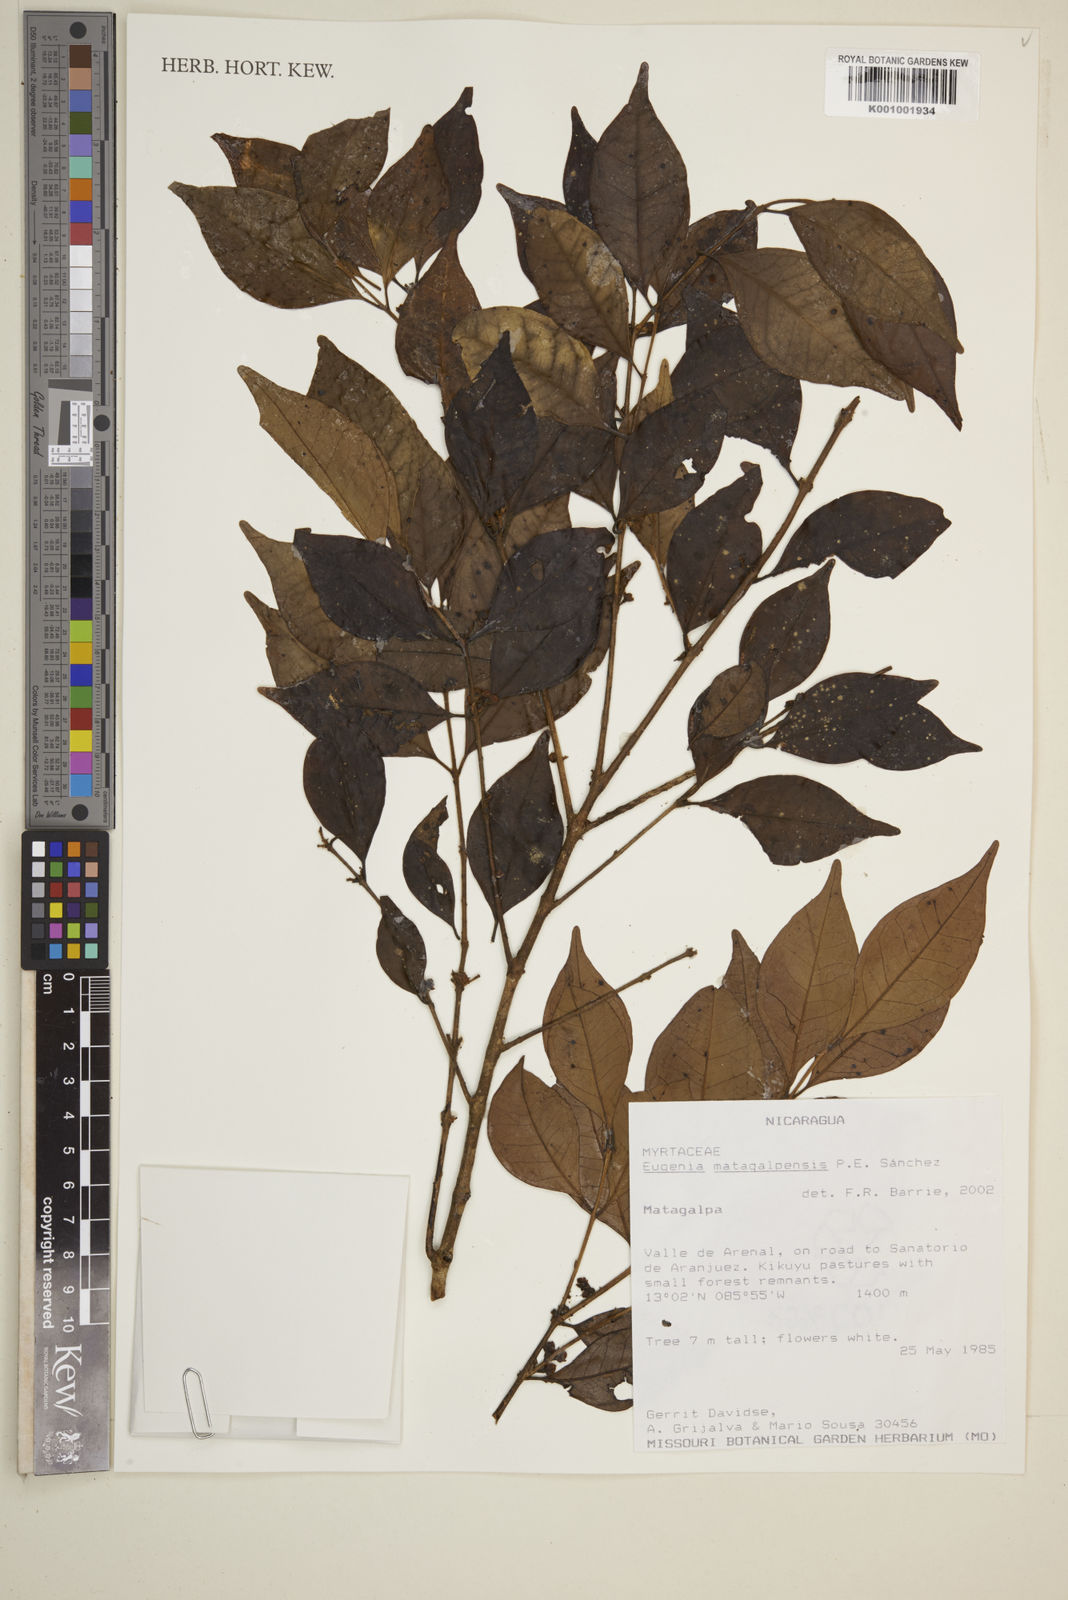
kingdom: Plantae
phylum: Tracheophyta
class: Magnoliopsida
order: Myrtales
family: Myrtaceae
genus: Eugenia
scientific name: Eugenia
